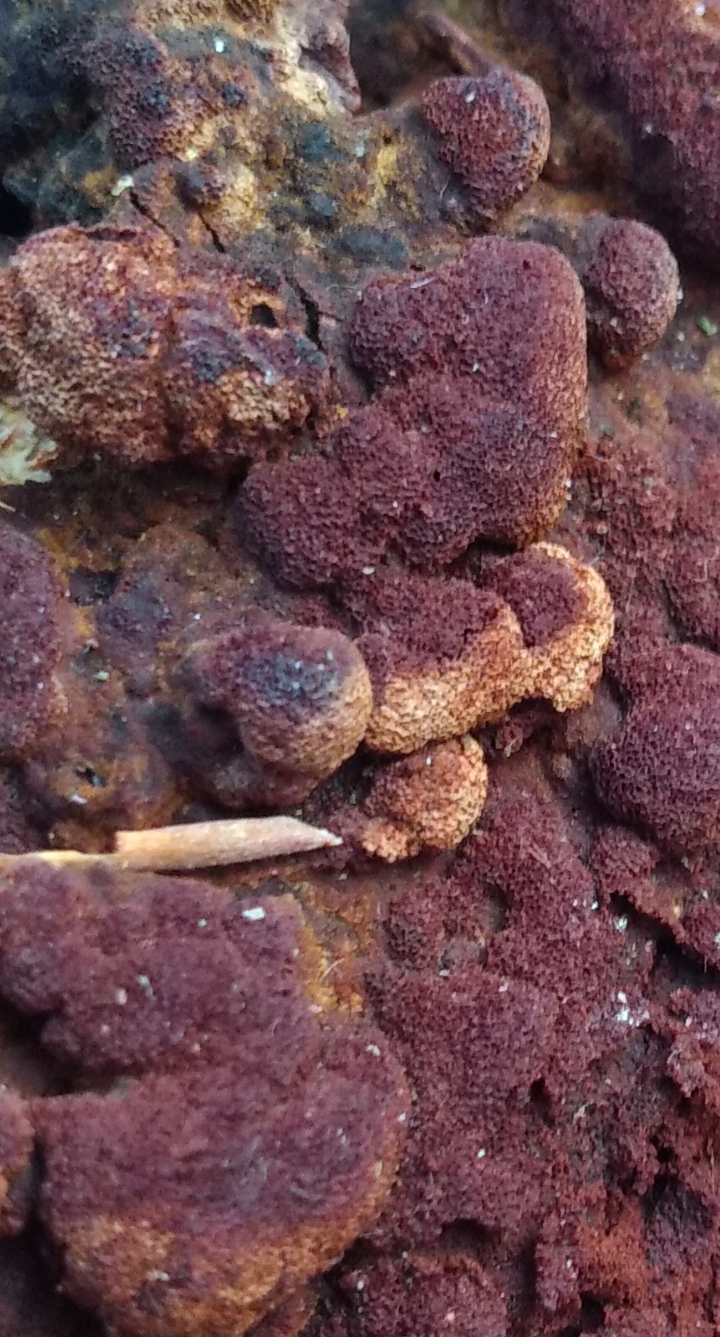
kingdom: Fungi
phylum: Basidiomycota
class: Agaricomycetes
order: Polyporales
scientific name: Polyporales
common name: poresvampordenen
